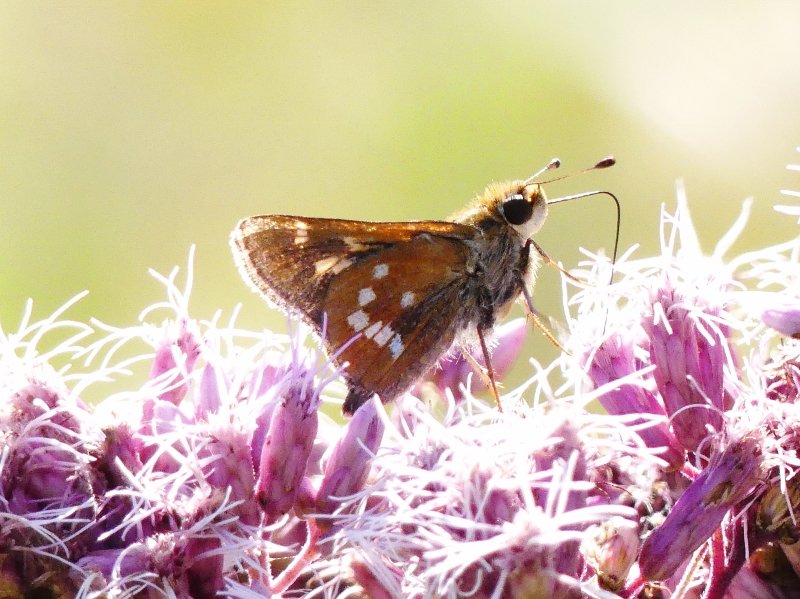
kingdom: Animalia
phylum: Arthropoda
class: Insecta
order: Lepidoptera
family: Hesperiidae
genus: Hesperia
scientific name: Hesperia leonardus
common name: Leonard's Skipper
